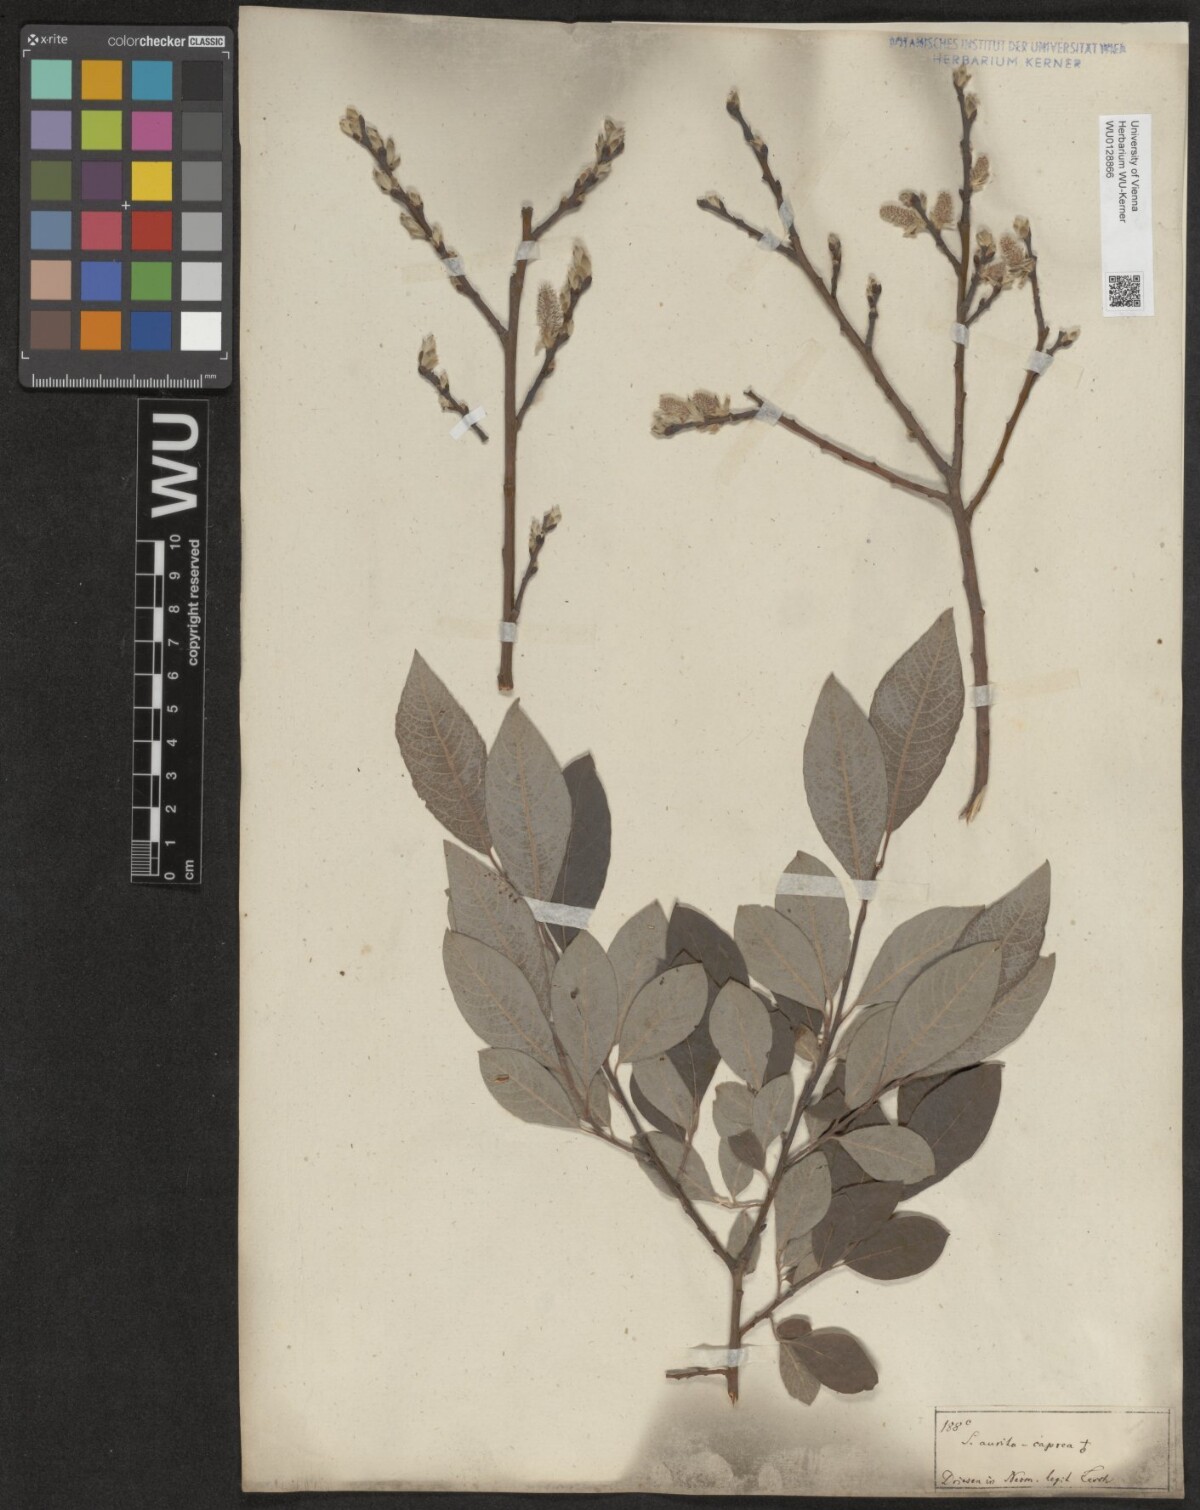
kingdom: Plantae
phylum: Tracheophyta
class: Magnoliopsida
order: Malpighiales
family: Salicaceae
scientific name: Salicaceae
